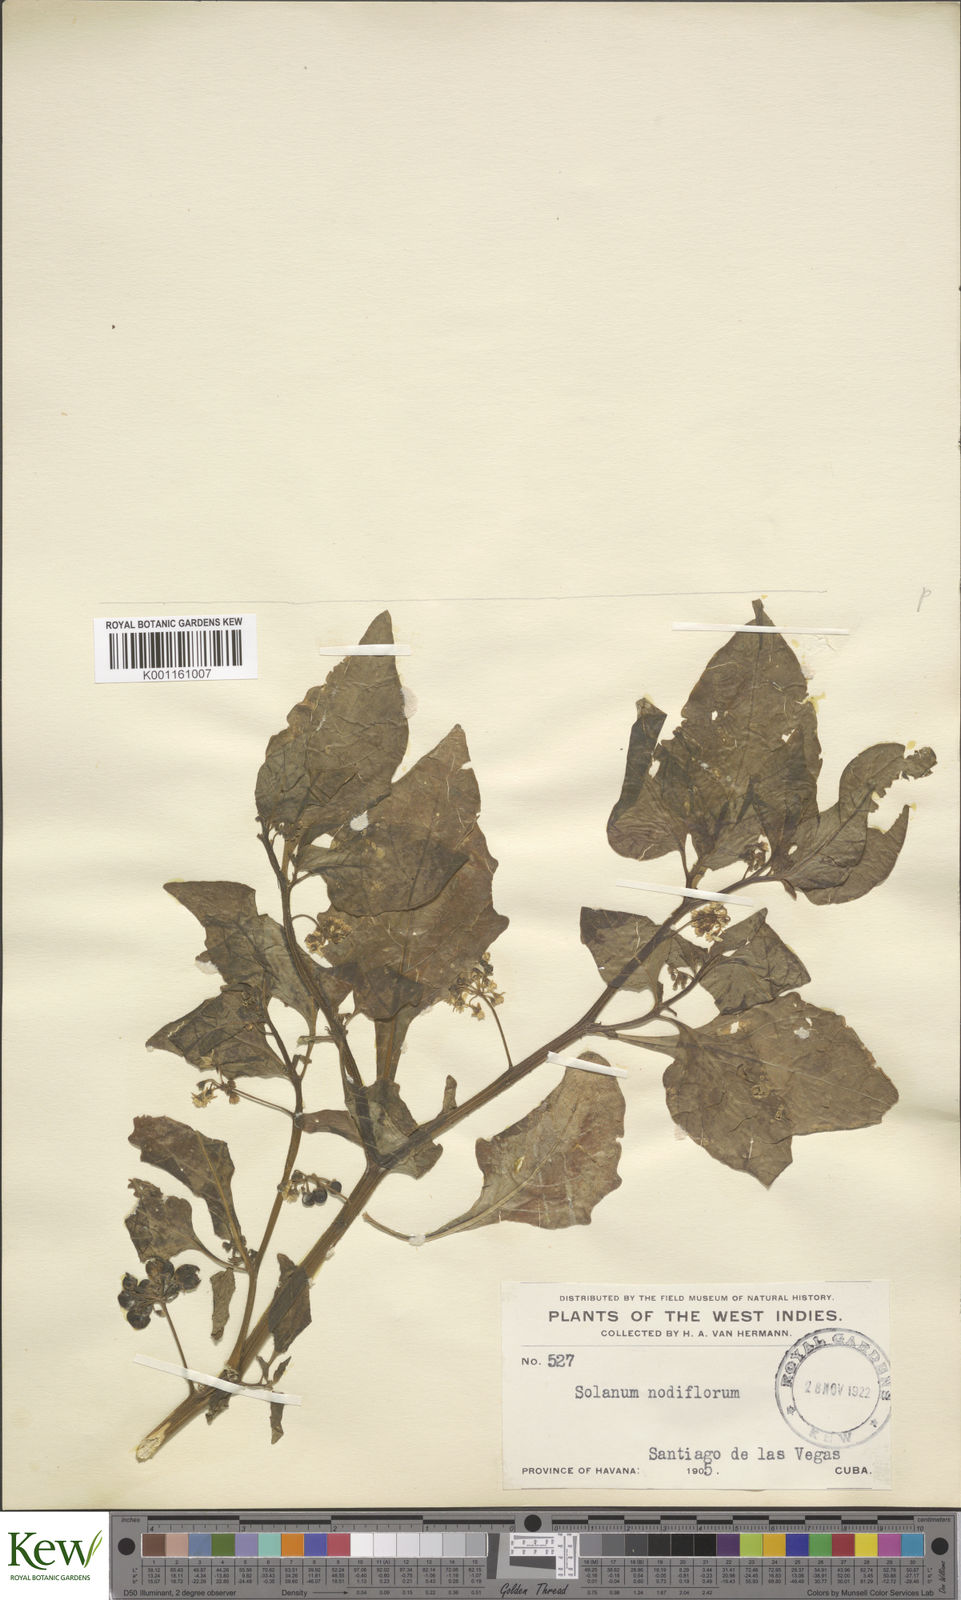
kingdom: Plantae
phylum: Tracheophyta
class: Magnoliopsida
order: Solanales
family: Solanaceae
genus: Solanum
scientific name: Solanum americanum
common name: American black nightshade
